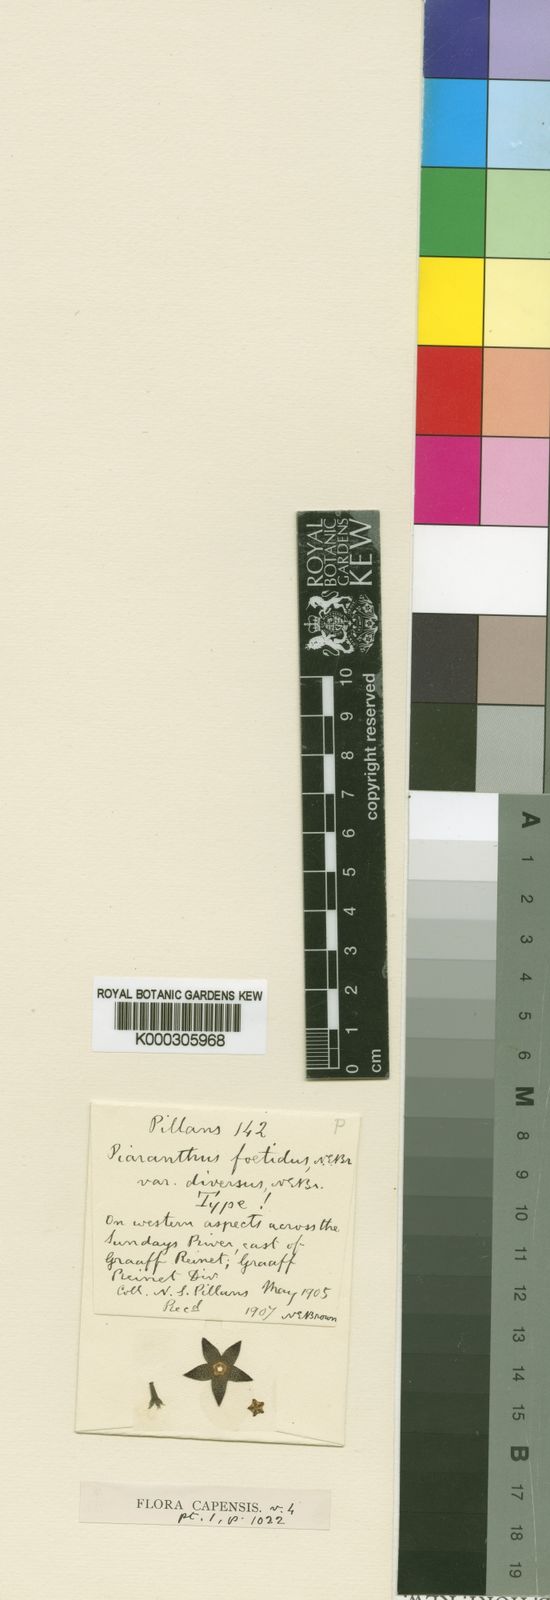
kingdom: Plantae
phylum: Tracheophyta
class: Magnoliopsida
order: Gentianales
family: Apocynaceae
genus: Ceropegia
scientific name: Ceropegia geminata
